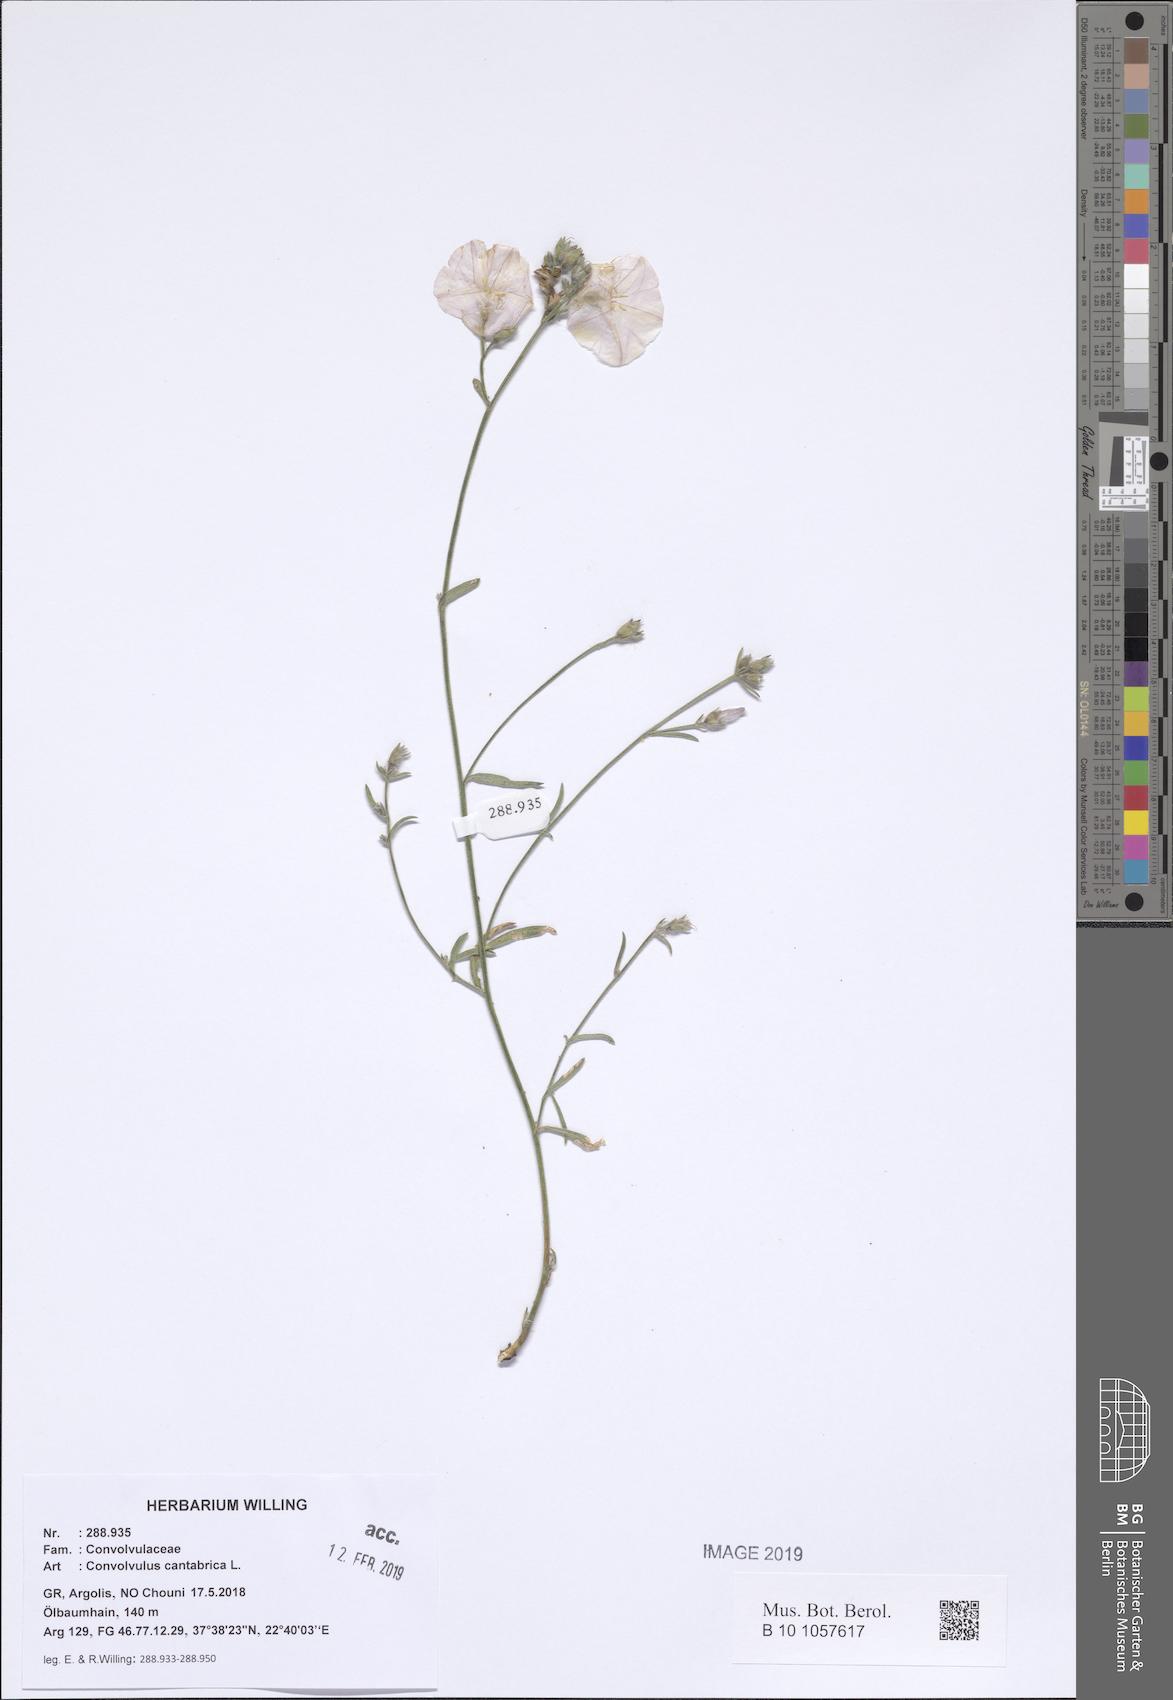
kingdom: Plantae
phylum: Tracheophyta
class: Magnoliopsida
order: Solanales
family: Convolvulaceae
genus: Convolvulus
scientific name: Convolvulus cantabrica
